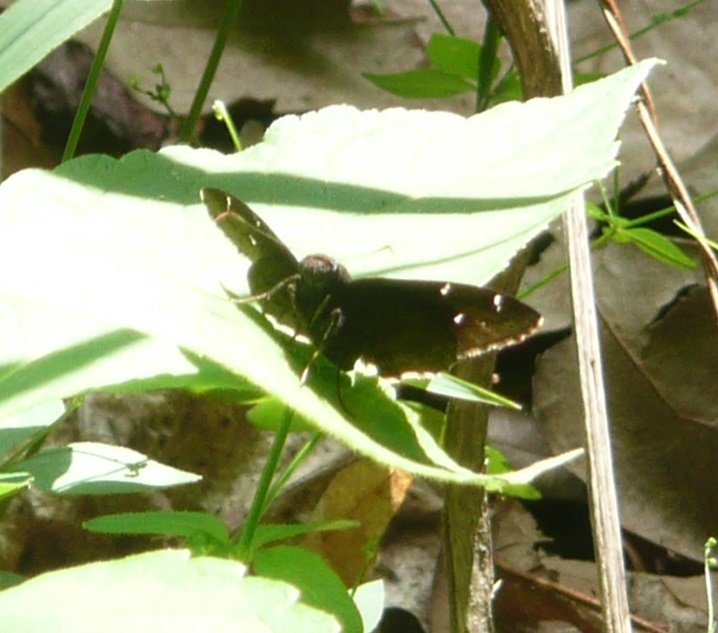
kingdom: Animalia
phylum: Arthropoda
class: Insecta
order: Lepidoptera
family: Hesperiidae
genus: Thorybes
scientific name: Thorybes
